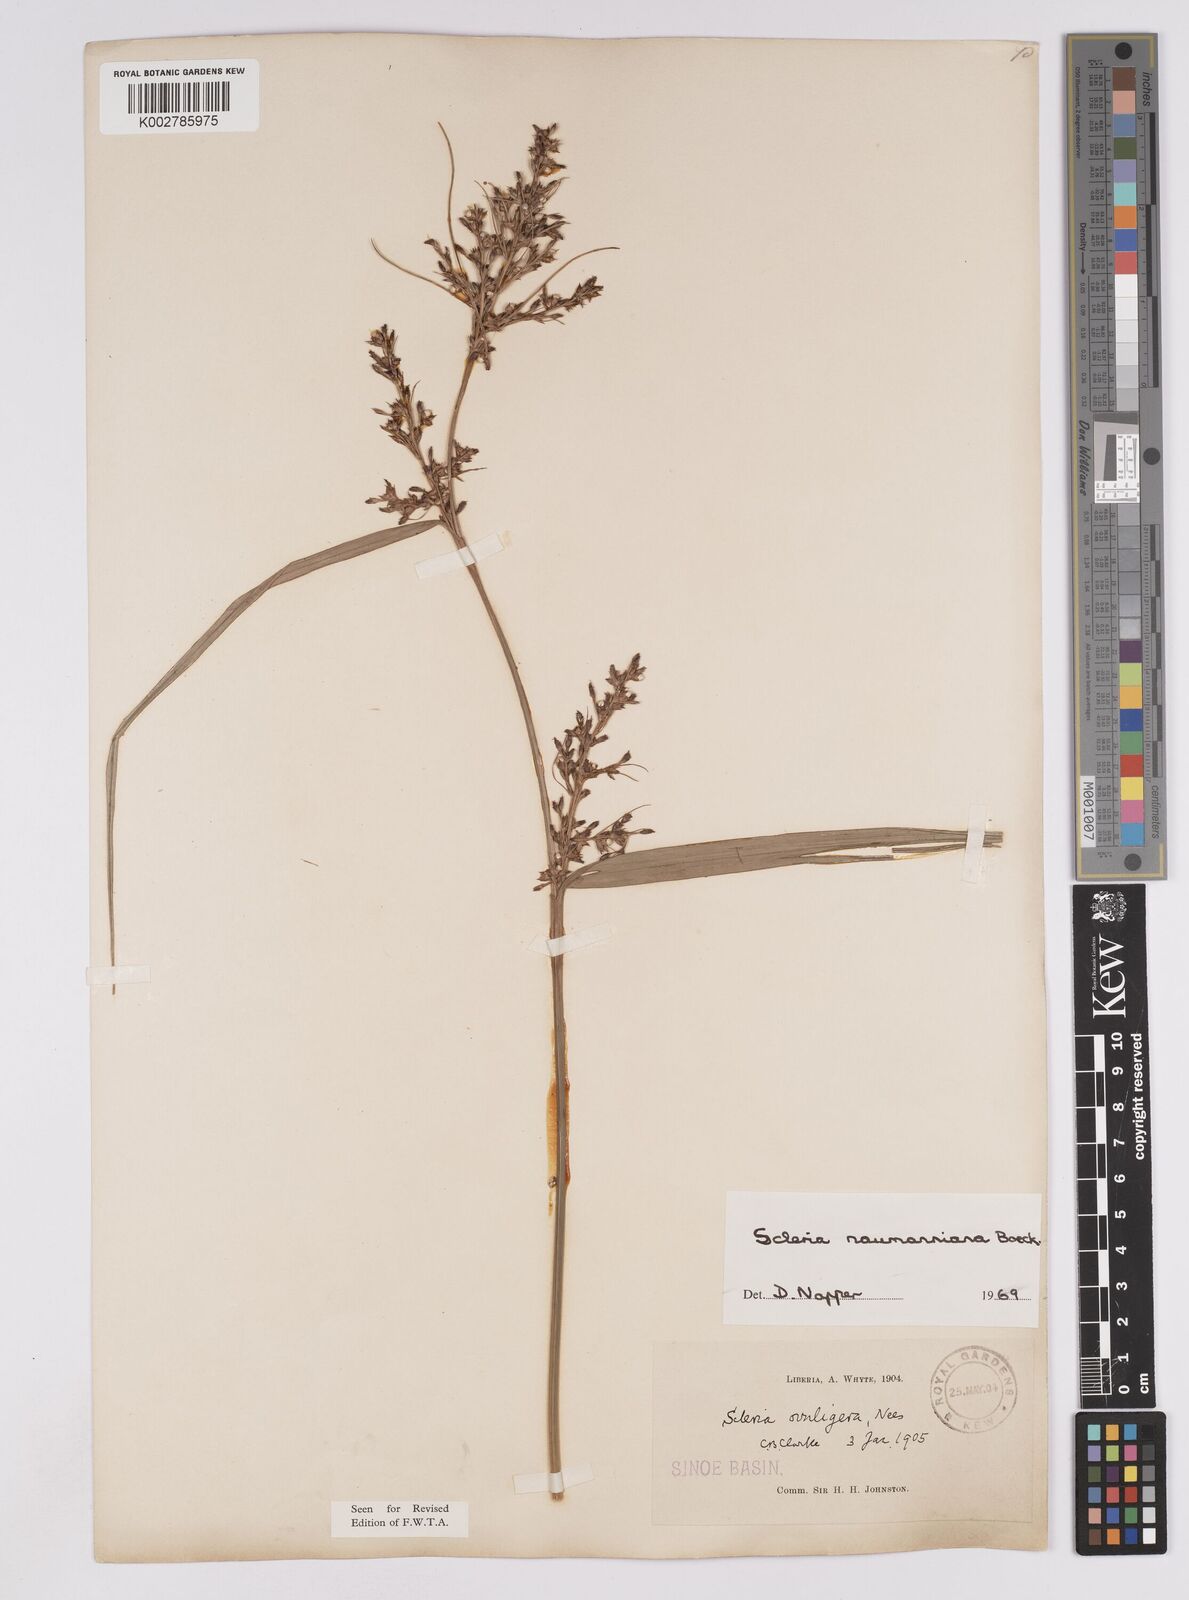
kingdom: Plantae
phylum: Tracheophyta
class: Liliopsida
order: Poales
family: Cyperaceae
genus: Scleria
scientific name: Scleria naumanniana
